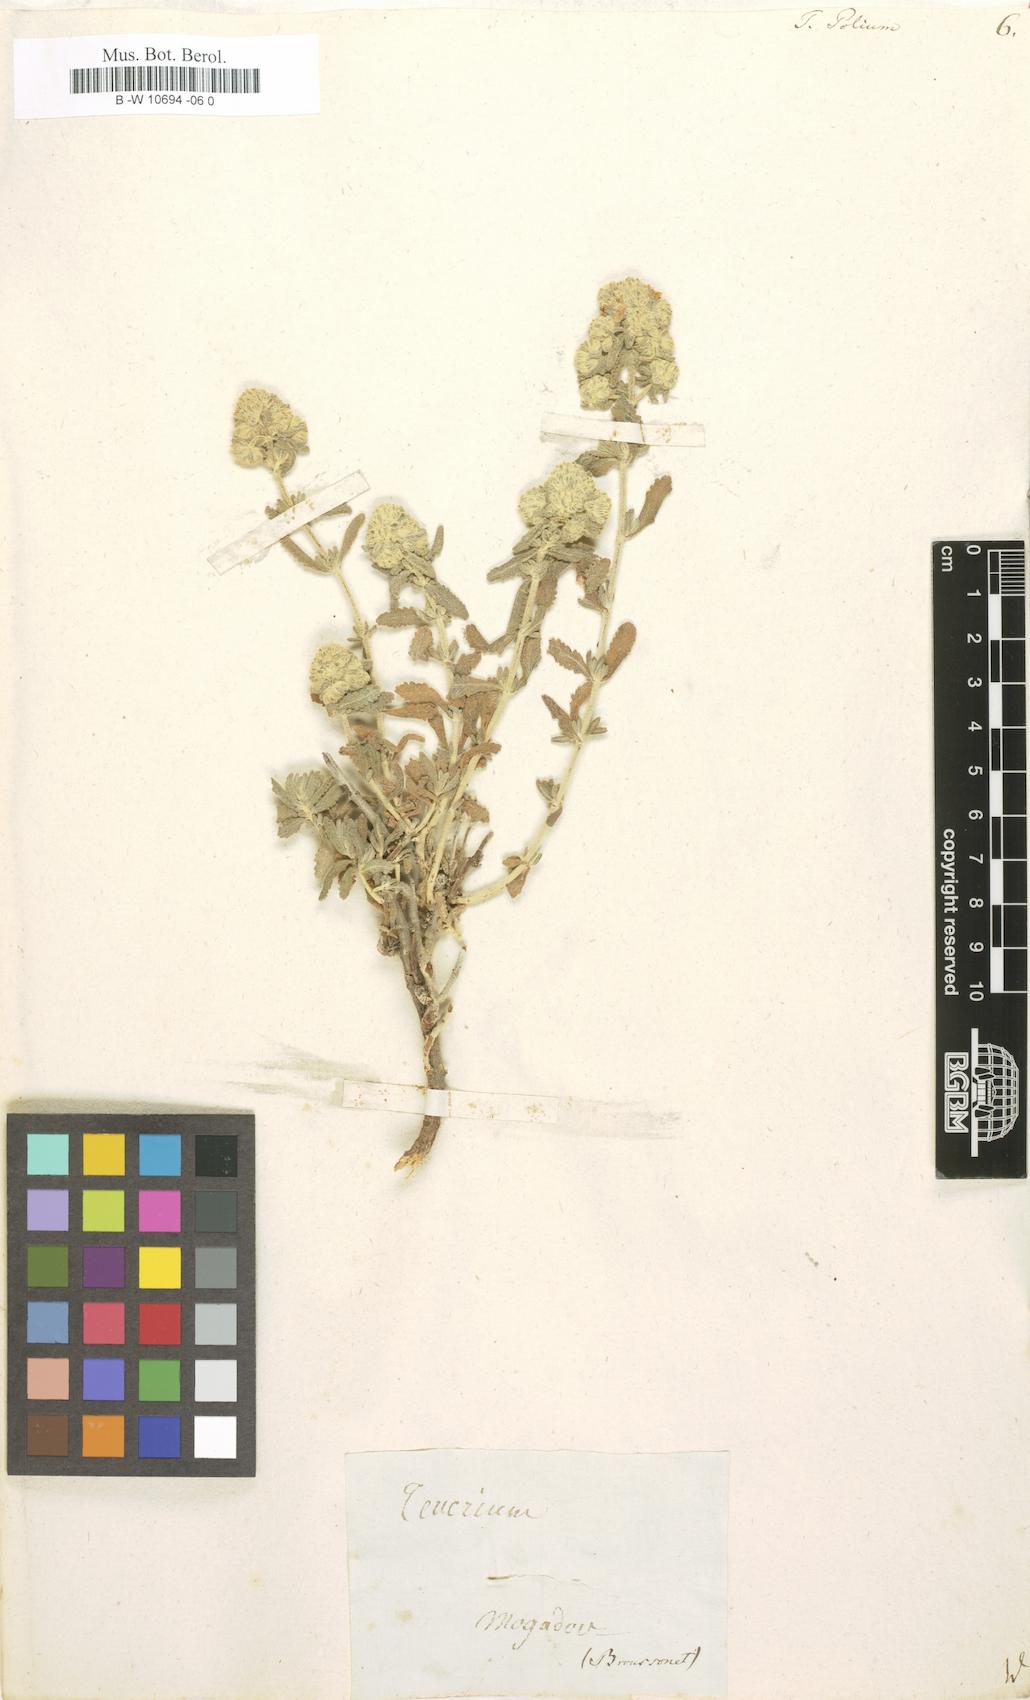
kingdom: Plantae
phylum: Tracheophyta
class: Magnoliopsida
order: Lamiales
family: Lamiaceae
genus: Teucrium
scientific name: Teucrium polium
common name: Poley
